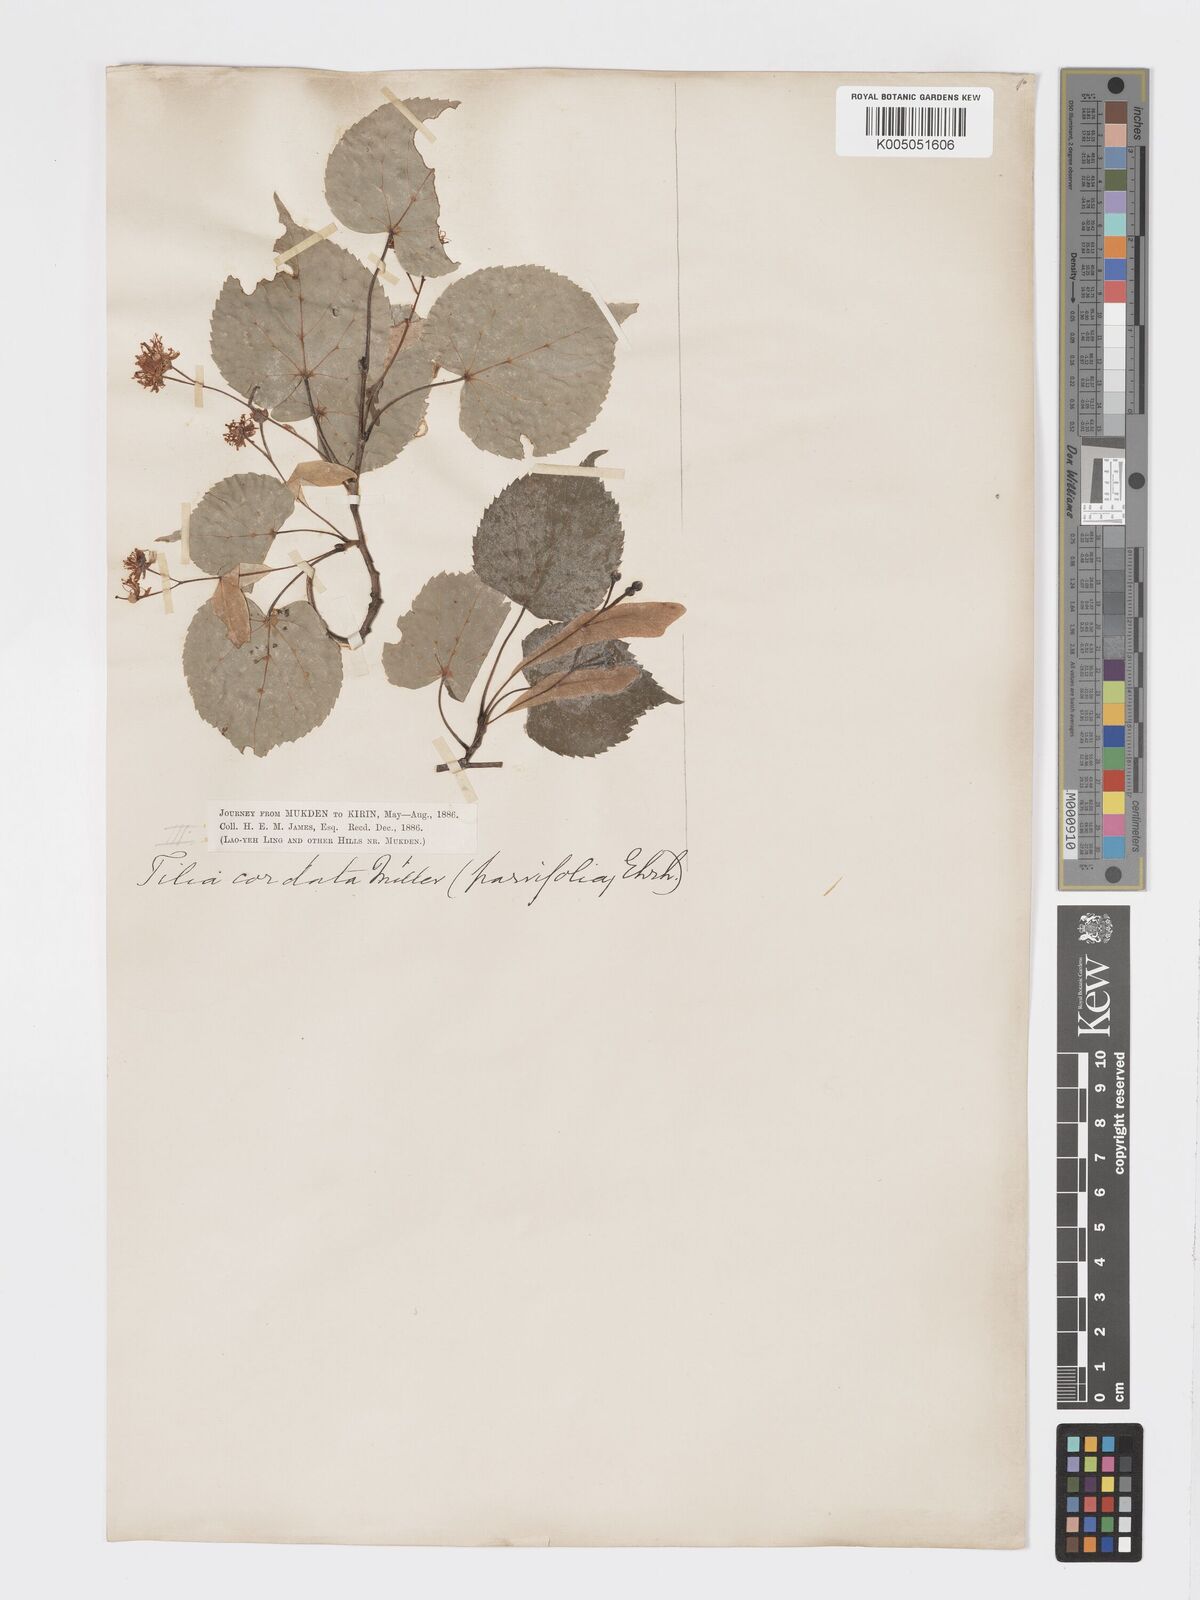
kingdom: Plantae
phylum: Tracheophyta
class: Magnoliopsida
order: Malvales
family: Malvaceae
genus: Tilia
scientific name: Tilia
